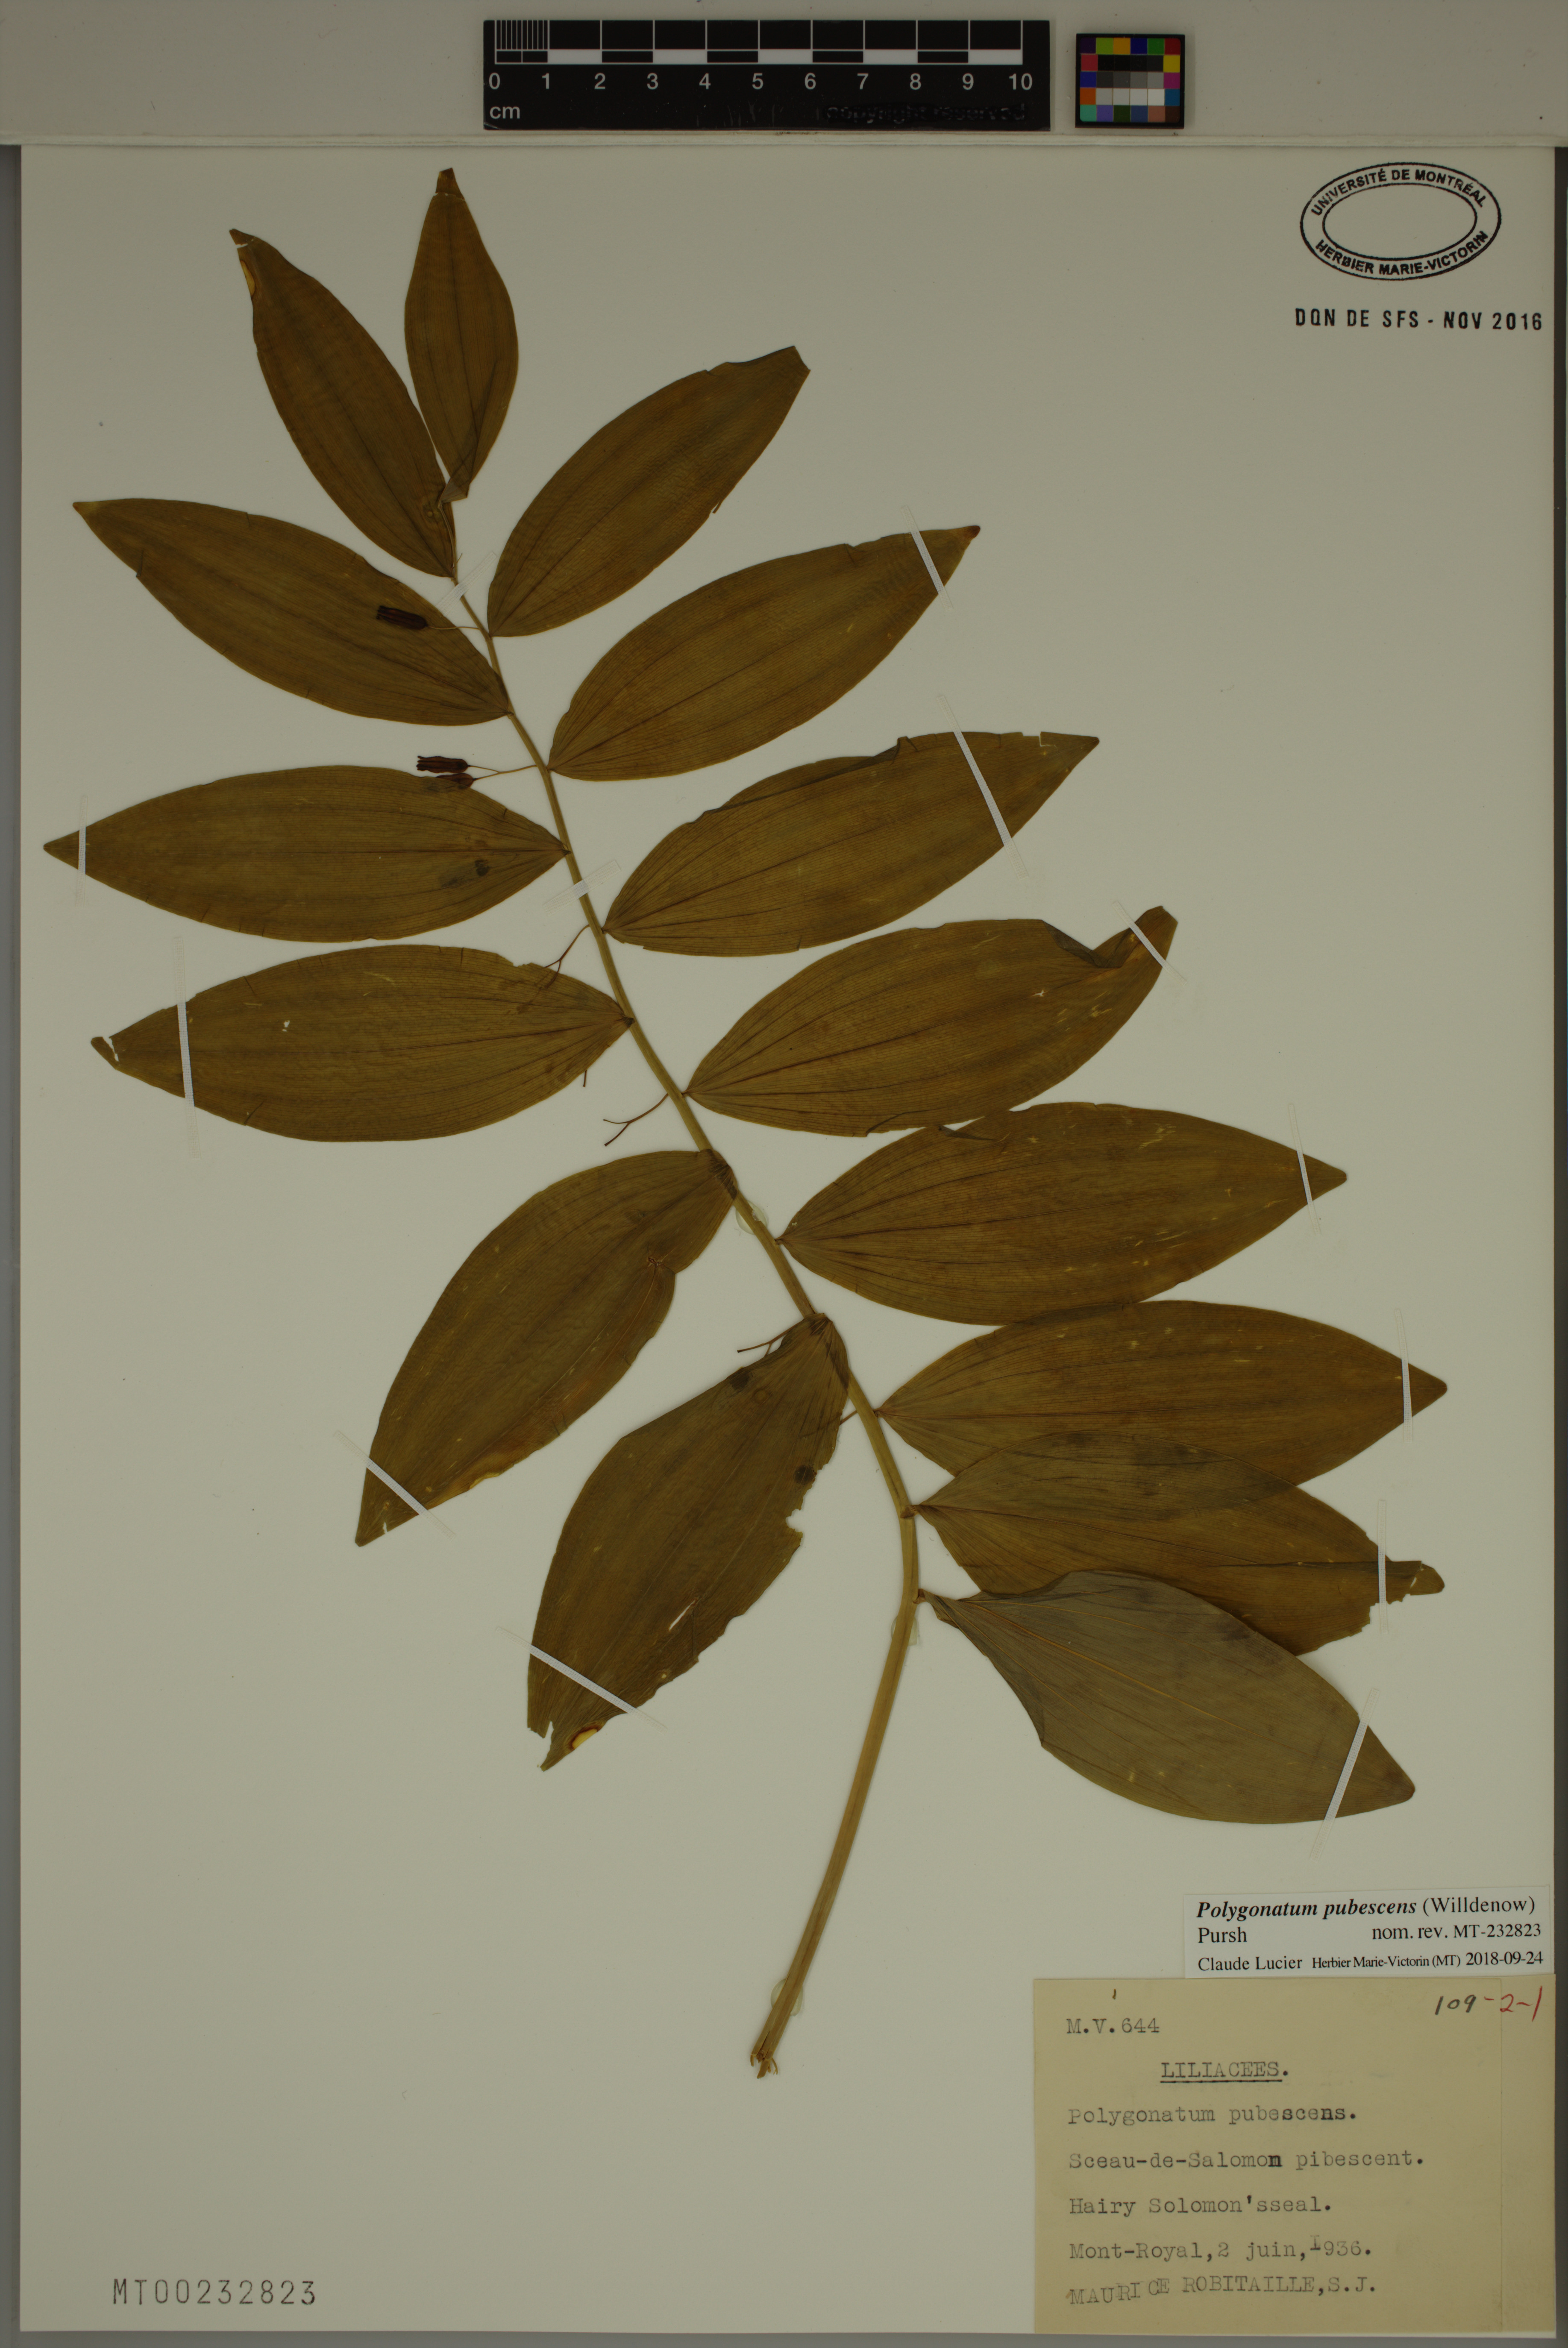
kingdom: Plantae
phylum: Tracheophyta
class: Liliopsida
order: Asparagales
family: Asparagaceae
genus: Polygonatum
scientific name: Polygonatum pubescens
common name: Downy solomon's seal
